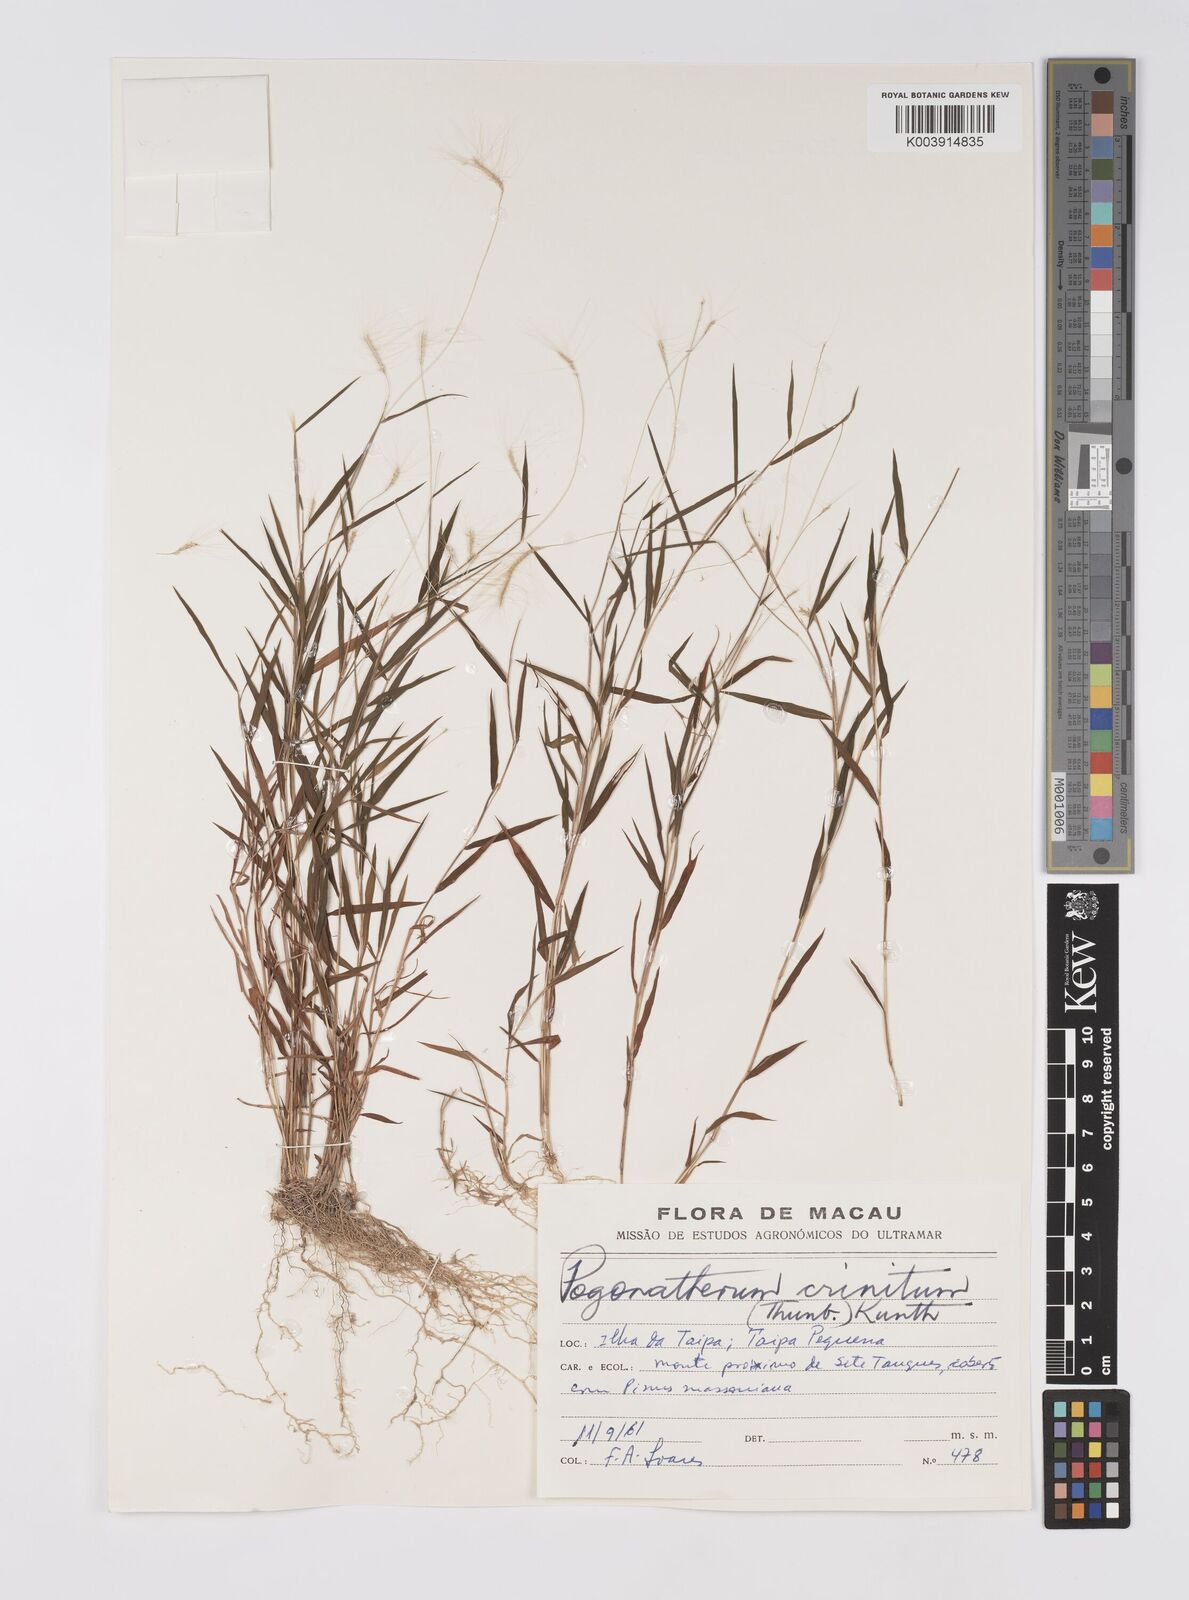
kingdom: Plantae
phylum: Tracheophyta
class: Liliopsida
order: Poales
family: Poaceae
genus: Pogonatherum
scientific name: Pogonatherum crinitum
